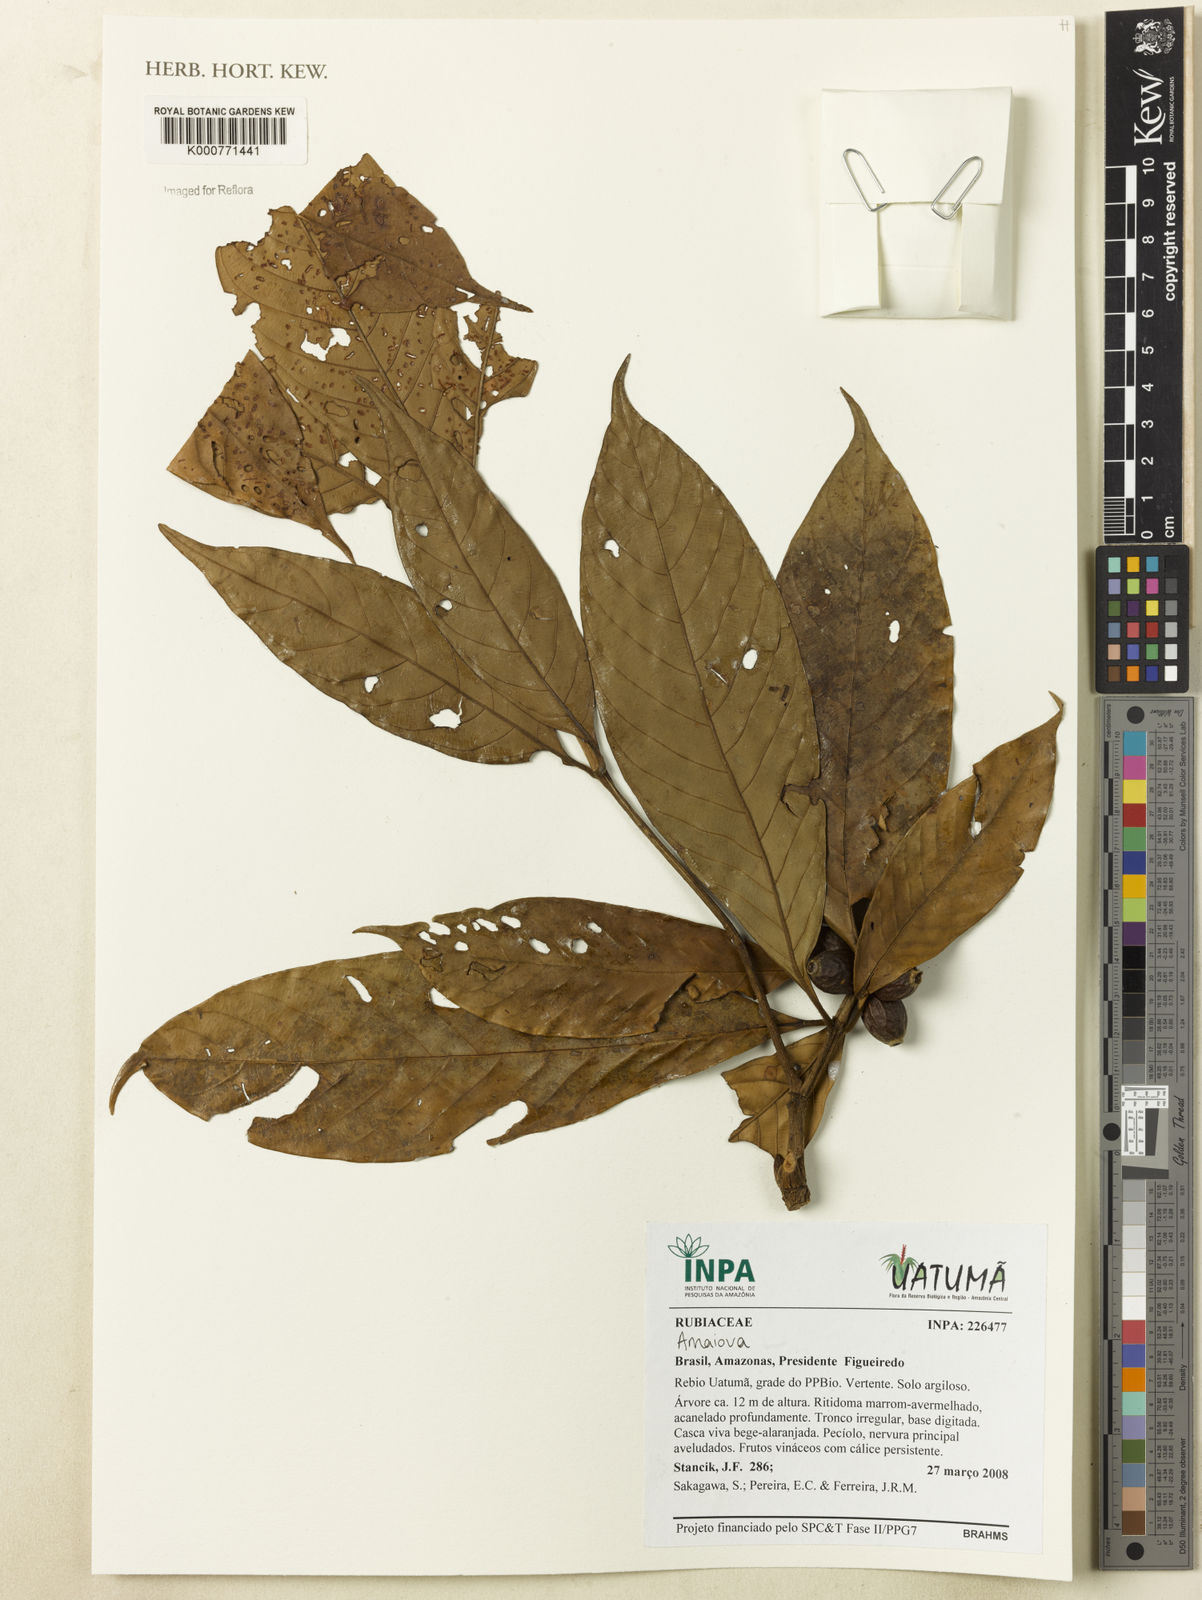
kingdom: Plantae
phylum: Tracheophyta
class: Magnoliopsida
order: Gentianales
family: Rubiaceae
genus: Amaioua
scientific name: Amaioua
